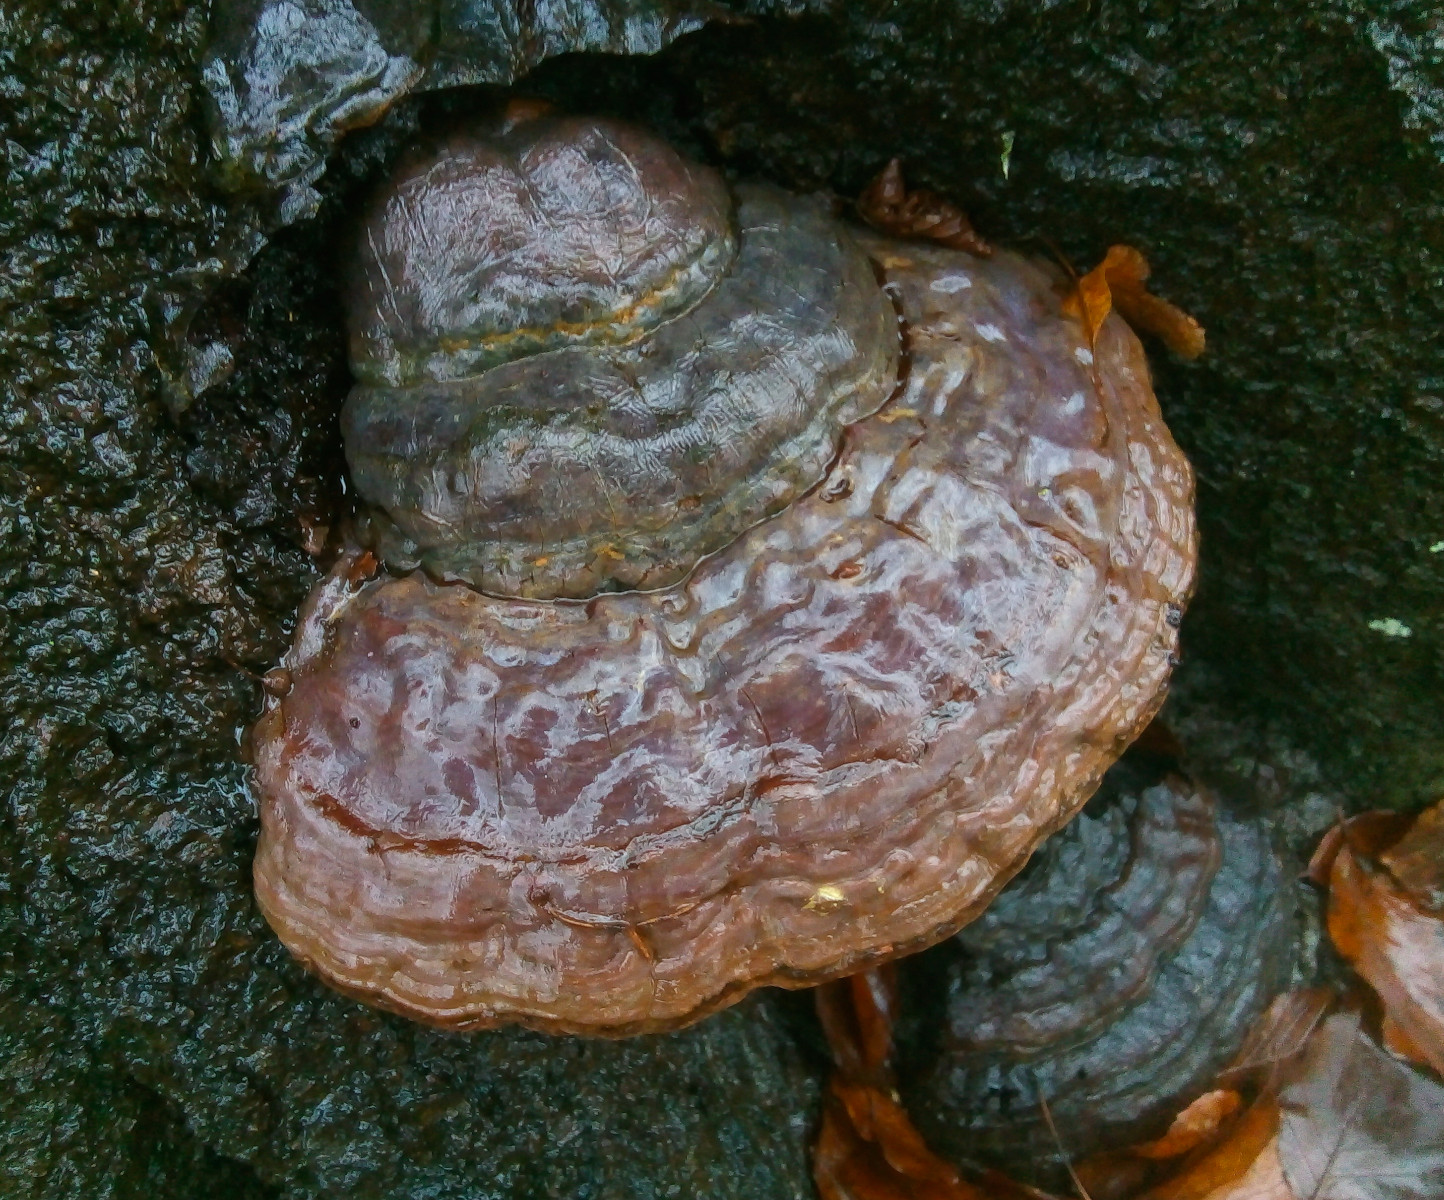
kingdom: Fungi
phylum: Basidiomycota
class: Agaricomycetes
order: Polyporales
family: Polyporaceae
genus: Ganoderma
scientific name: Ganoderma pfeifferi
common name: kobberrød lakporesvamp
